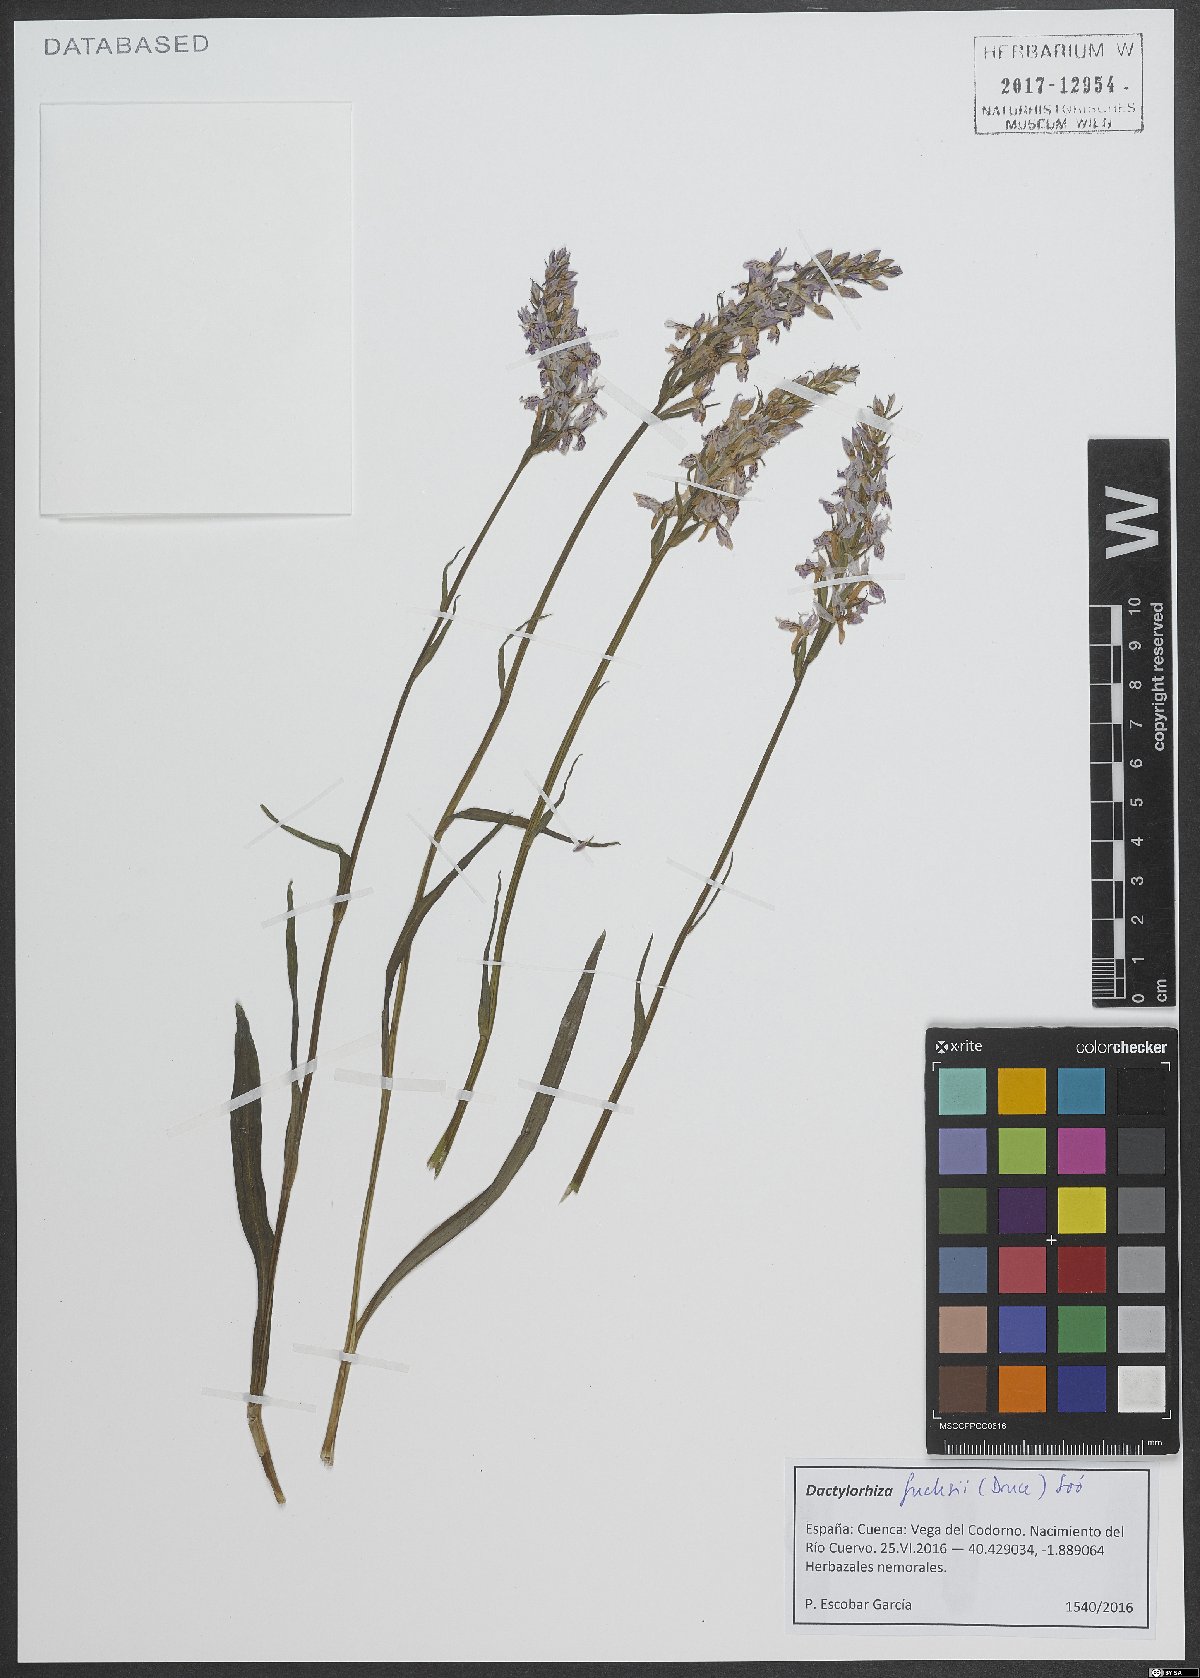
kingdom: Plantae
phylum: Tracheophyta
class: Liliopsida
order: Asparagales
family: Orchidaceae
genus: Dactylorhiza
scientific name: Dactylorhiza maculata
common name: Heath spotted-orchid
